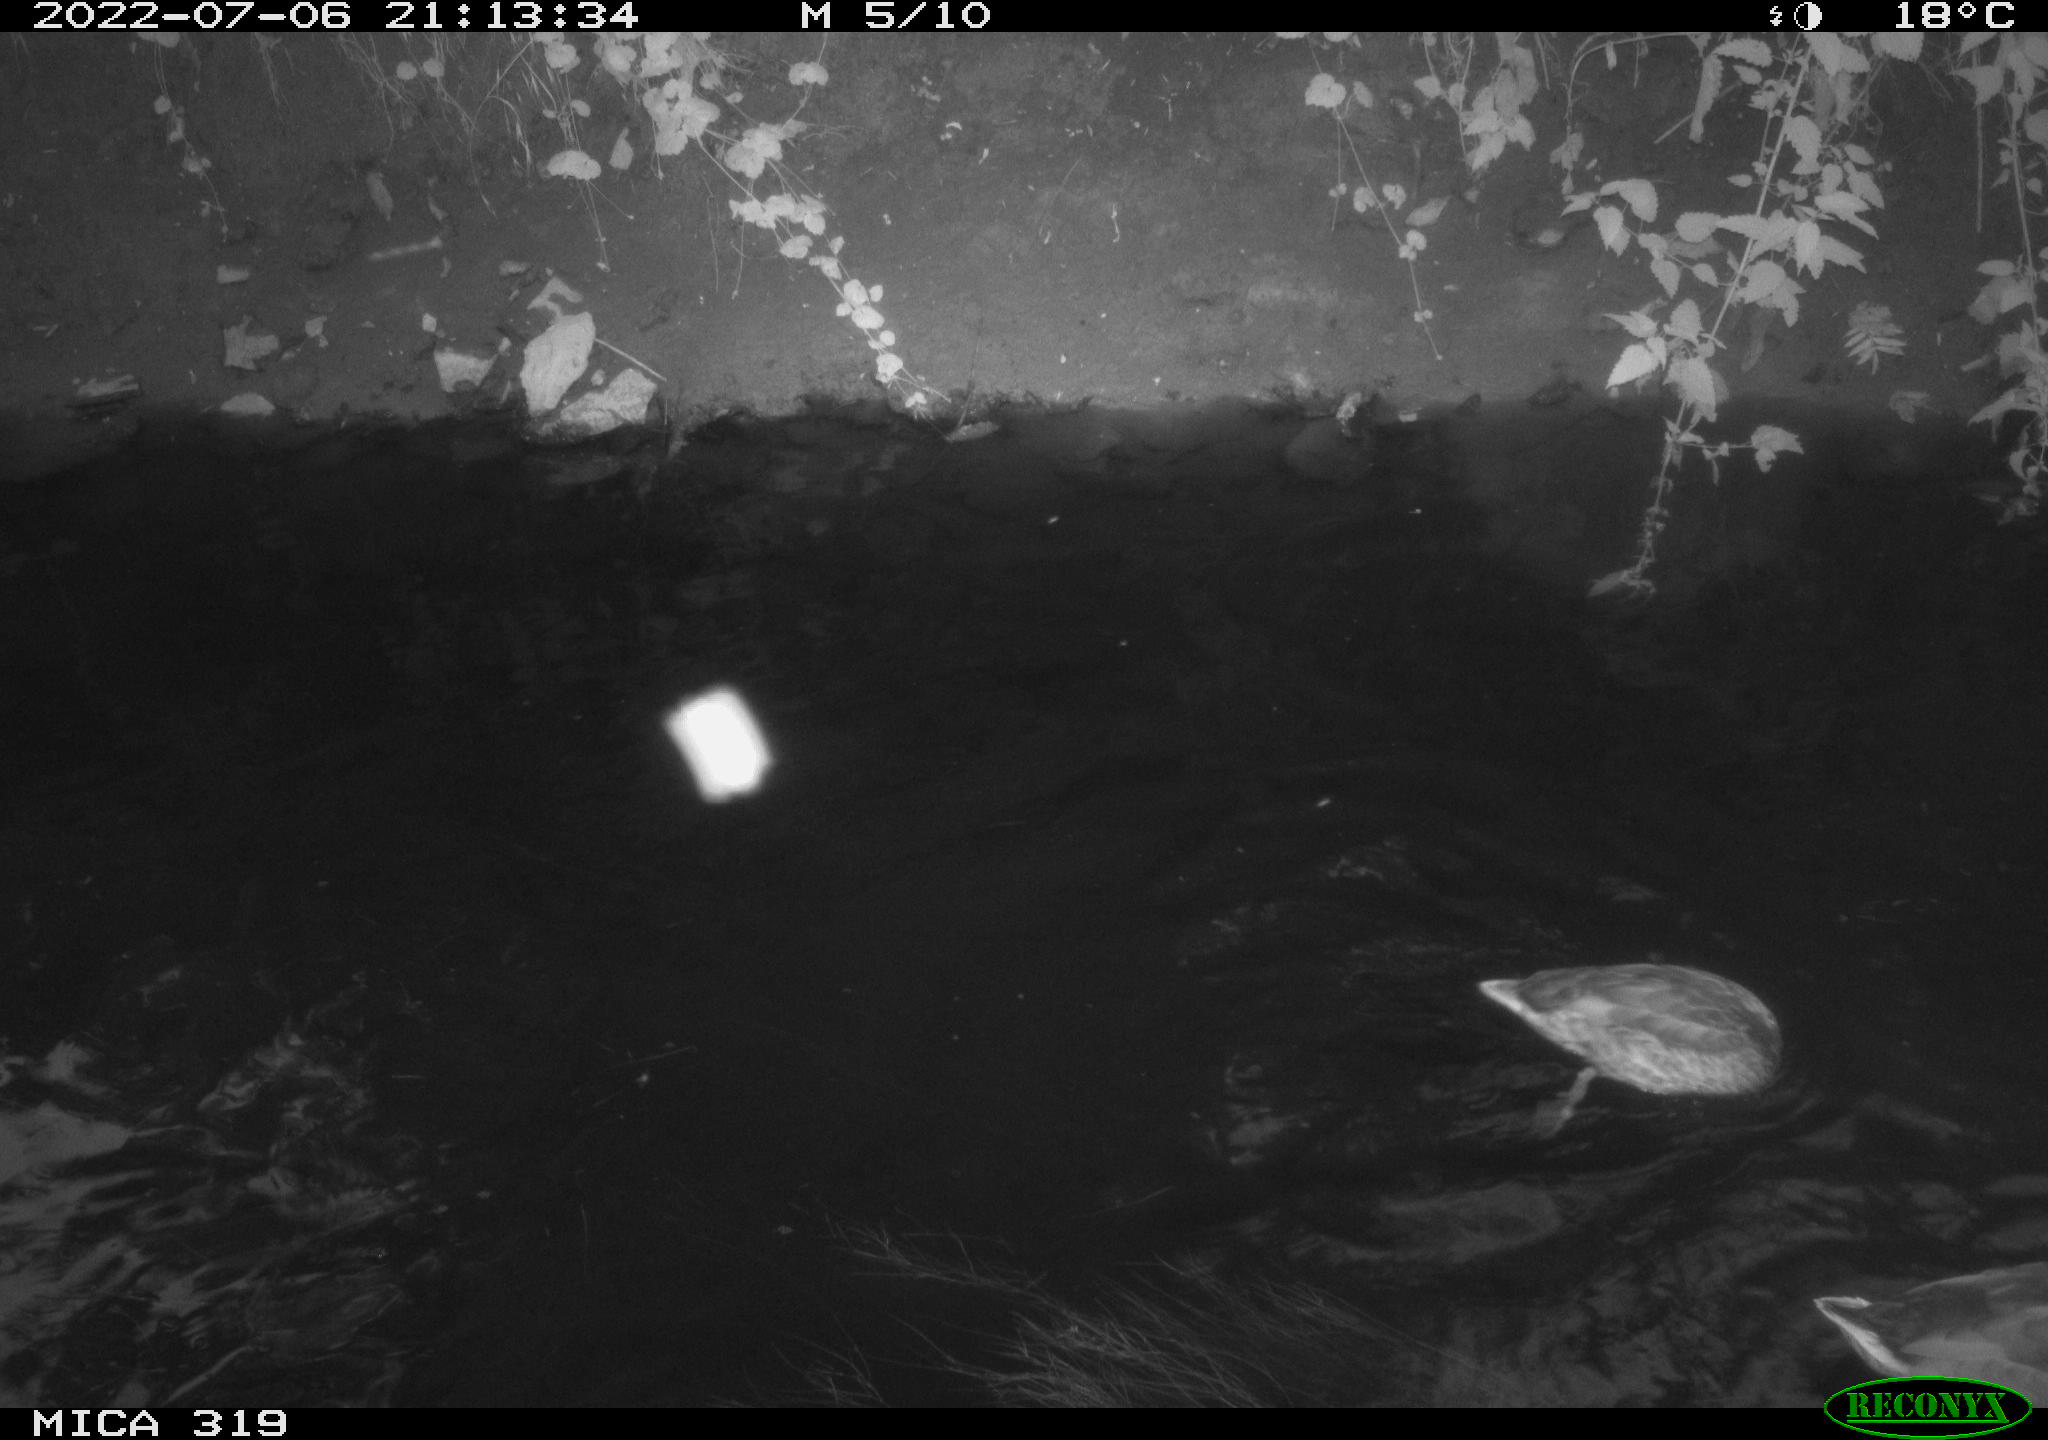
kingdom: Animalia
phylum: Chordata
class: Aves
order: Anseriformes
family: Anatidae
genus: Mareca
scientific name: Mareca strepera
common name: Gadwall
